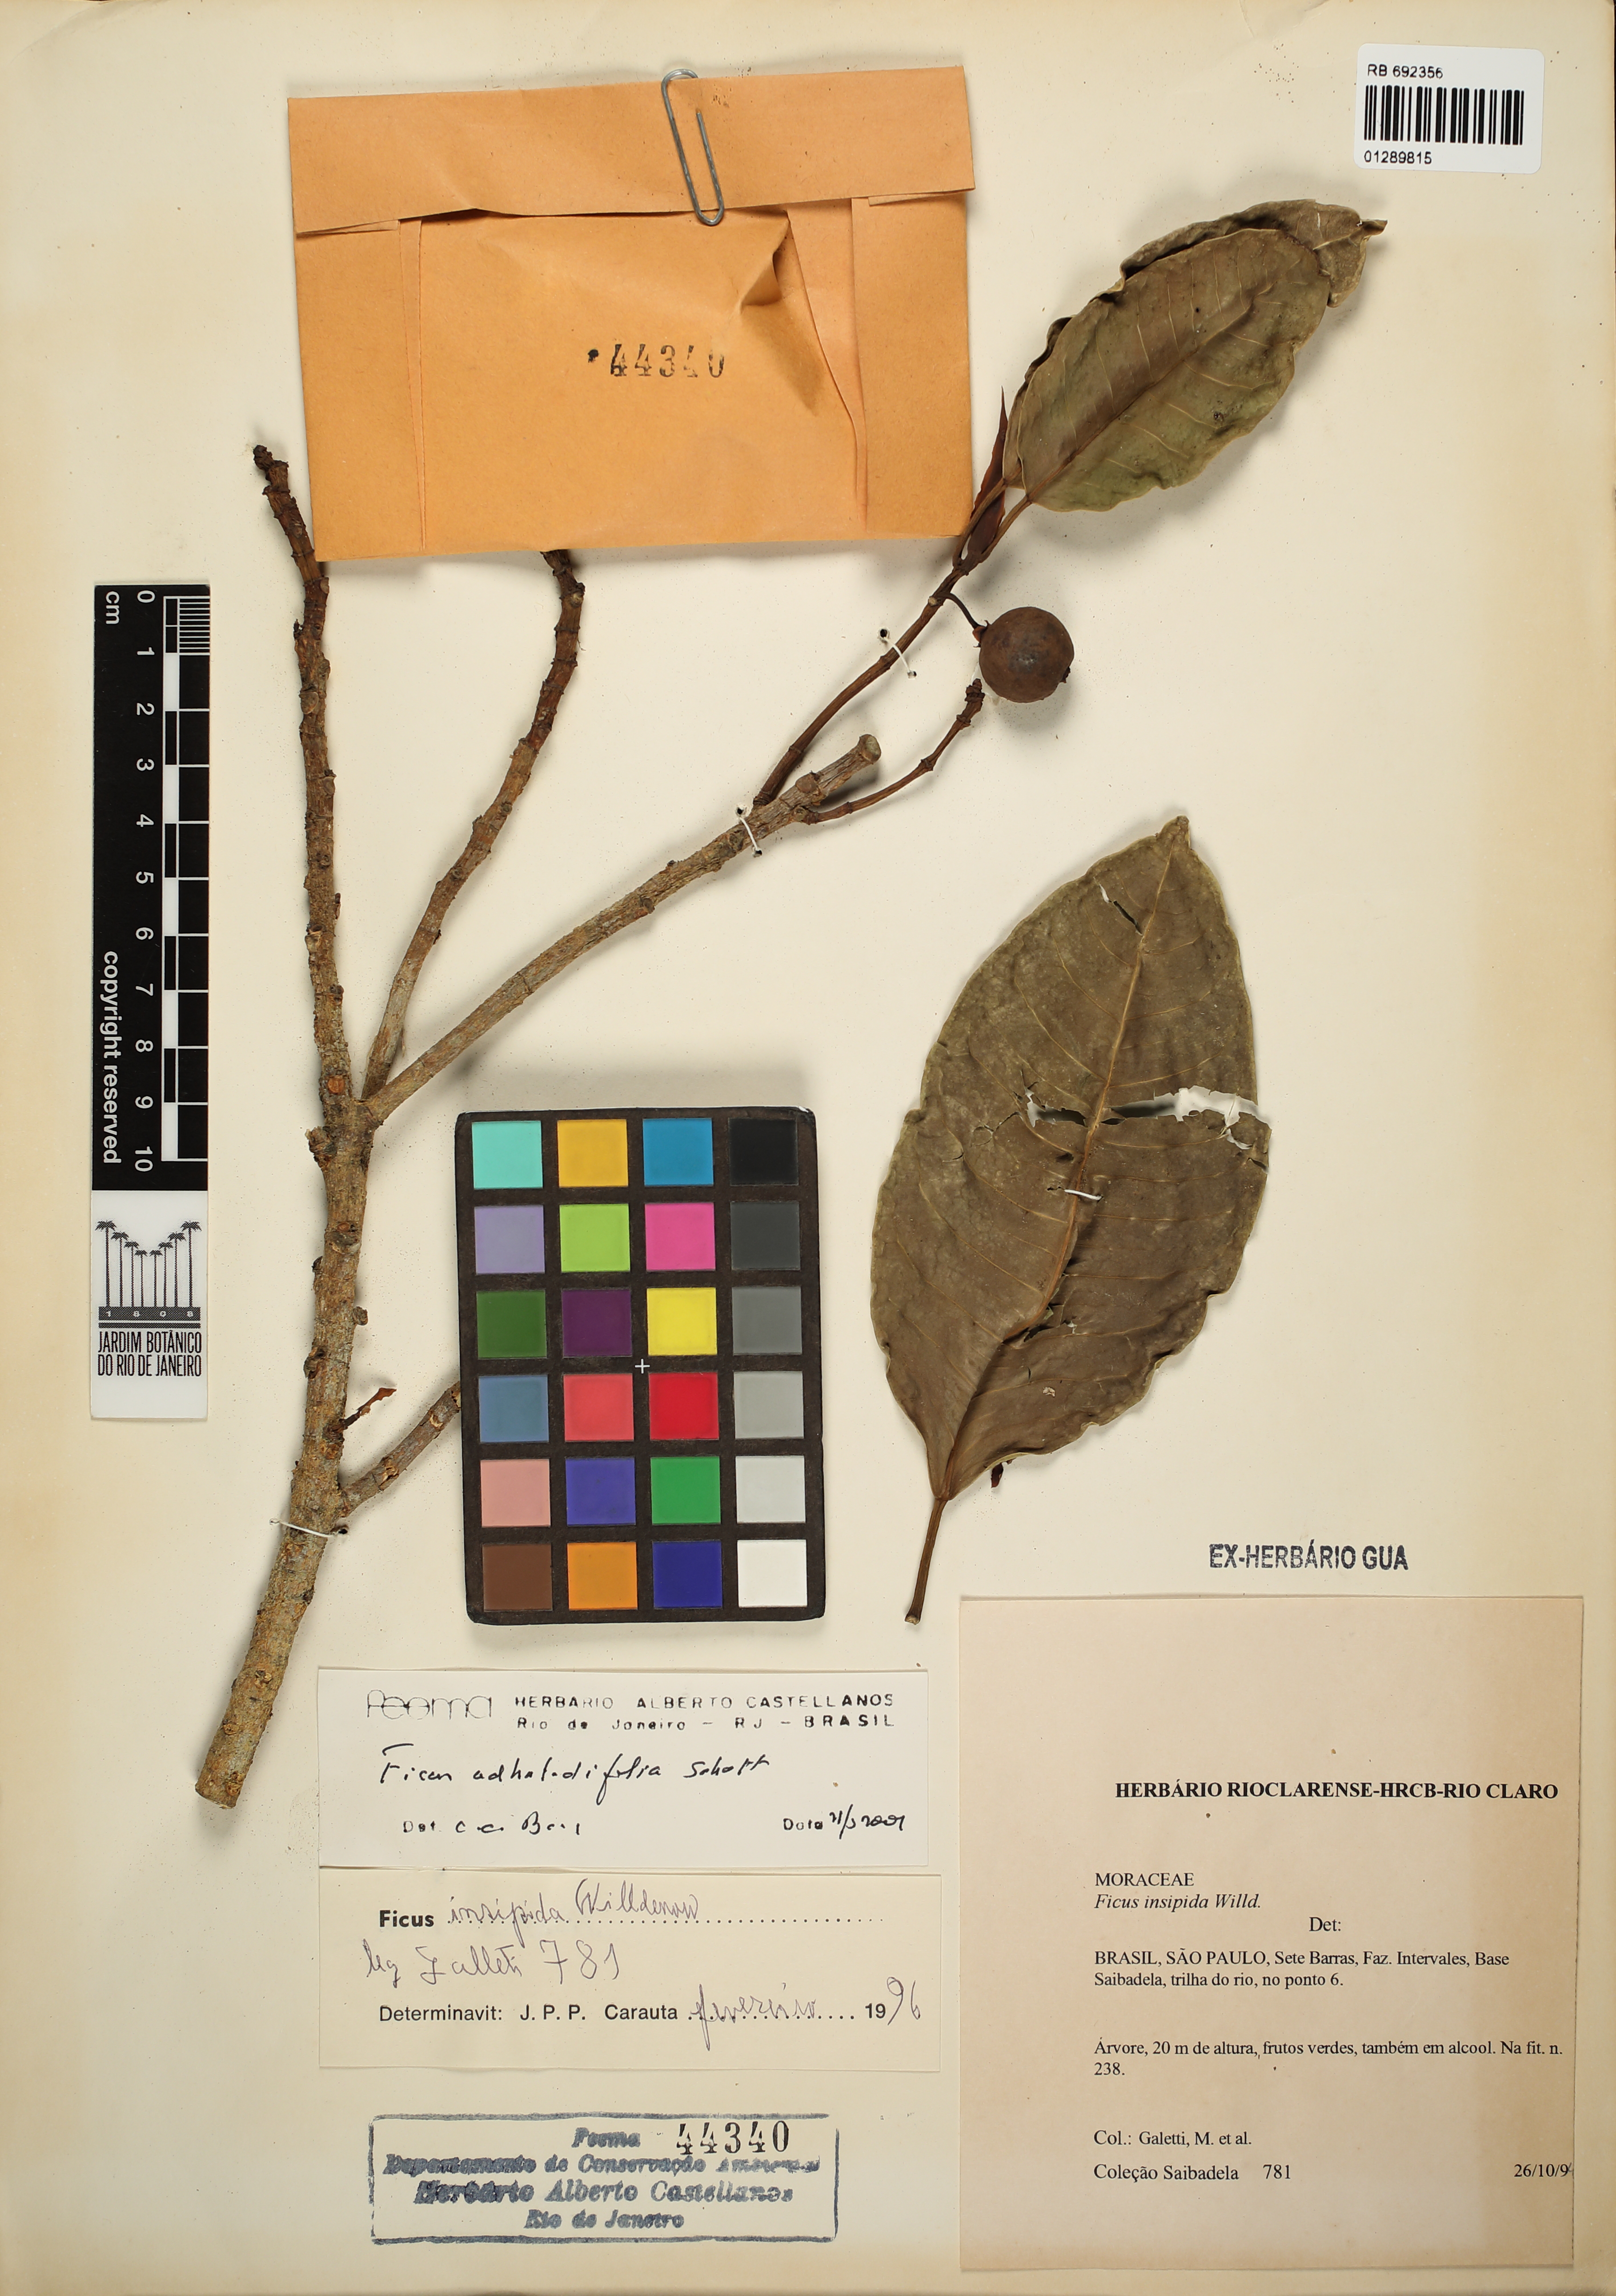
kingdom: Plantae
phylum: Tracheophyta
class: Magnoliopsida
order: Rosales
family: Moraceae
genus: Ficus
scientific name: Ficus insipida
